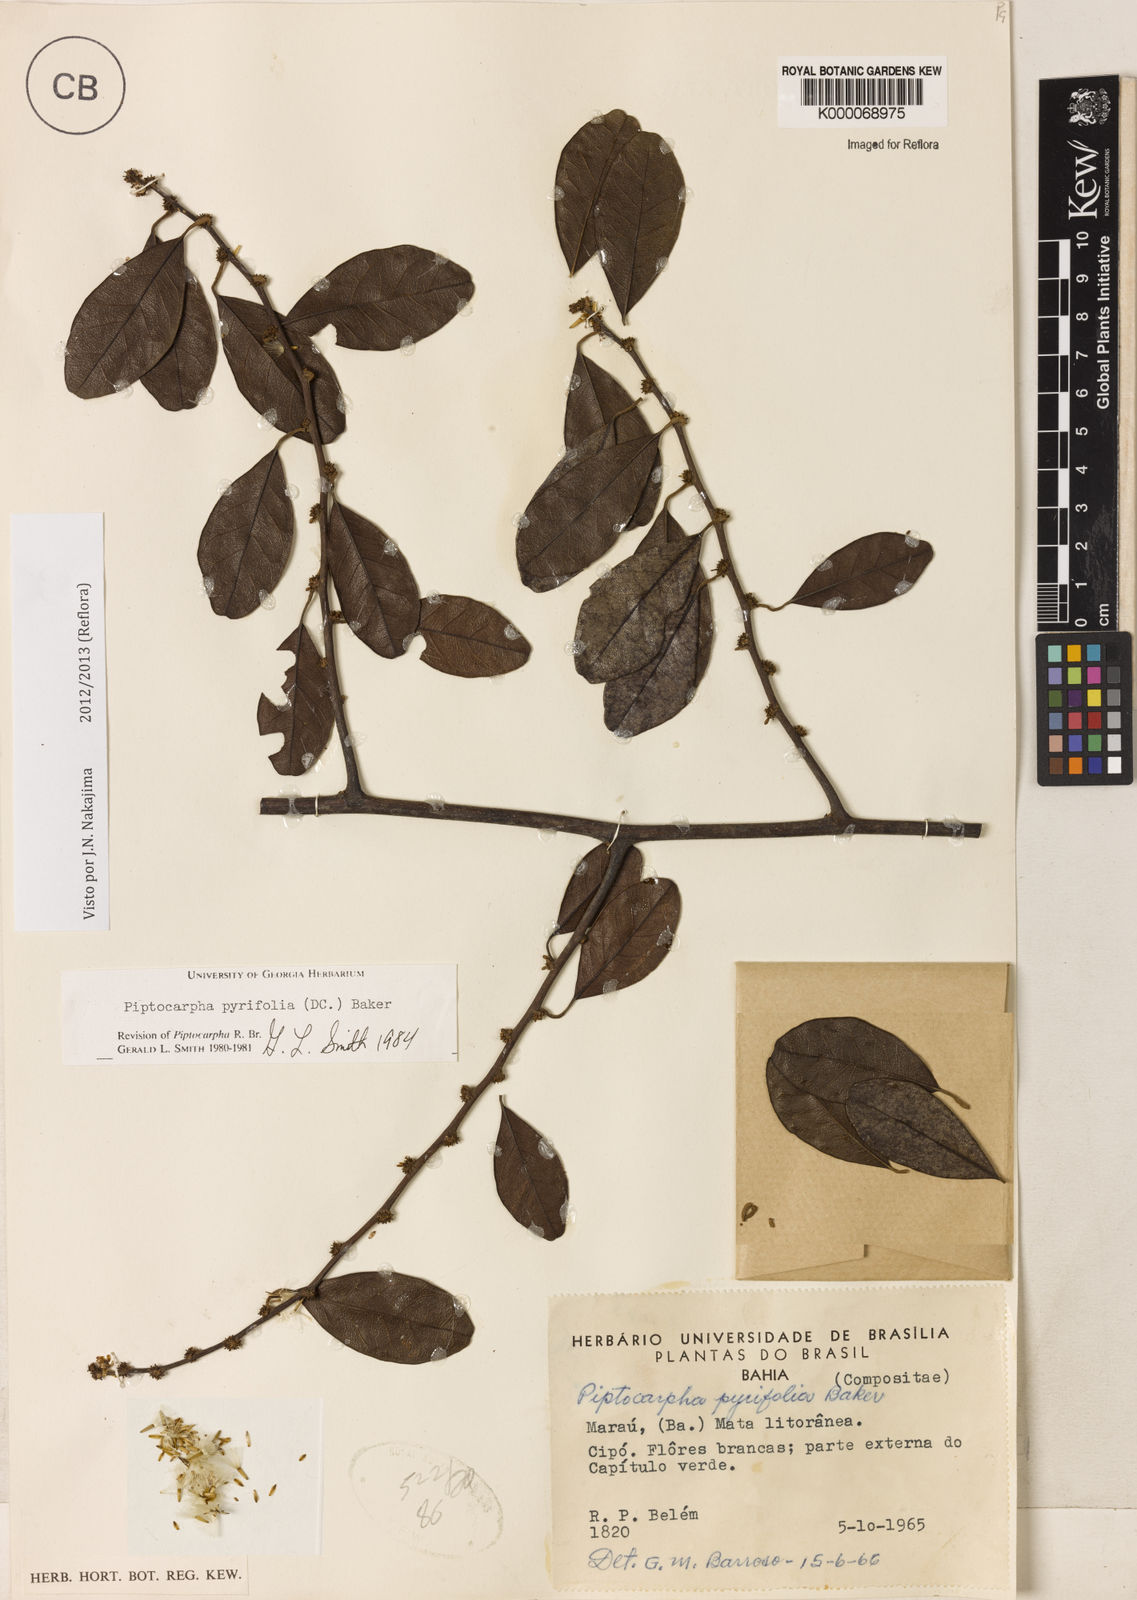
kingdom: Plantae
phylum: Tracheophyta
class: Magnoliopsida
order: Asterales
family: Asteraceae
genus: Piptocarpha
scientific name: Piptocarpha pyrifolia
